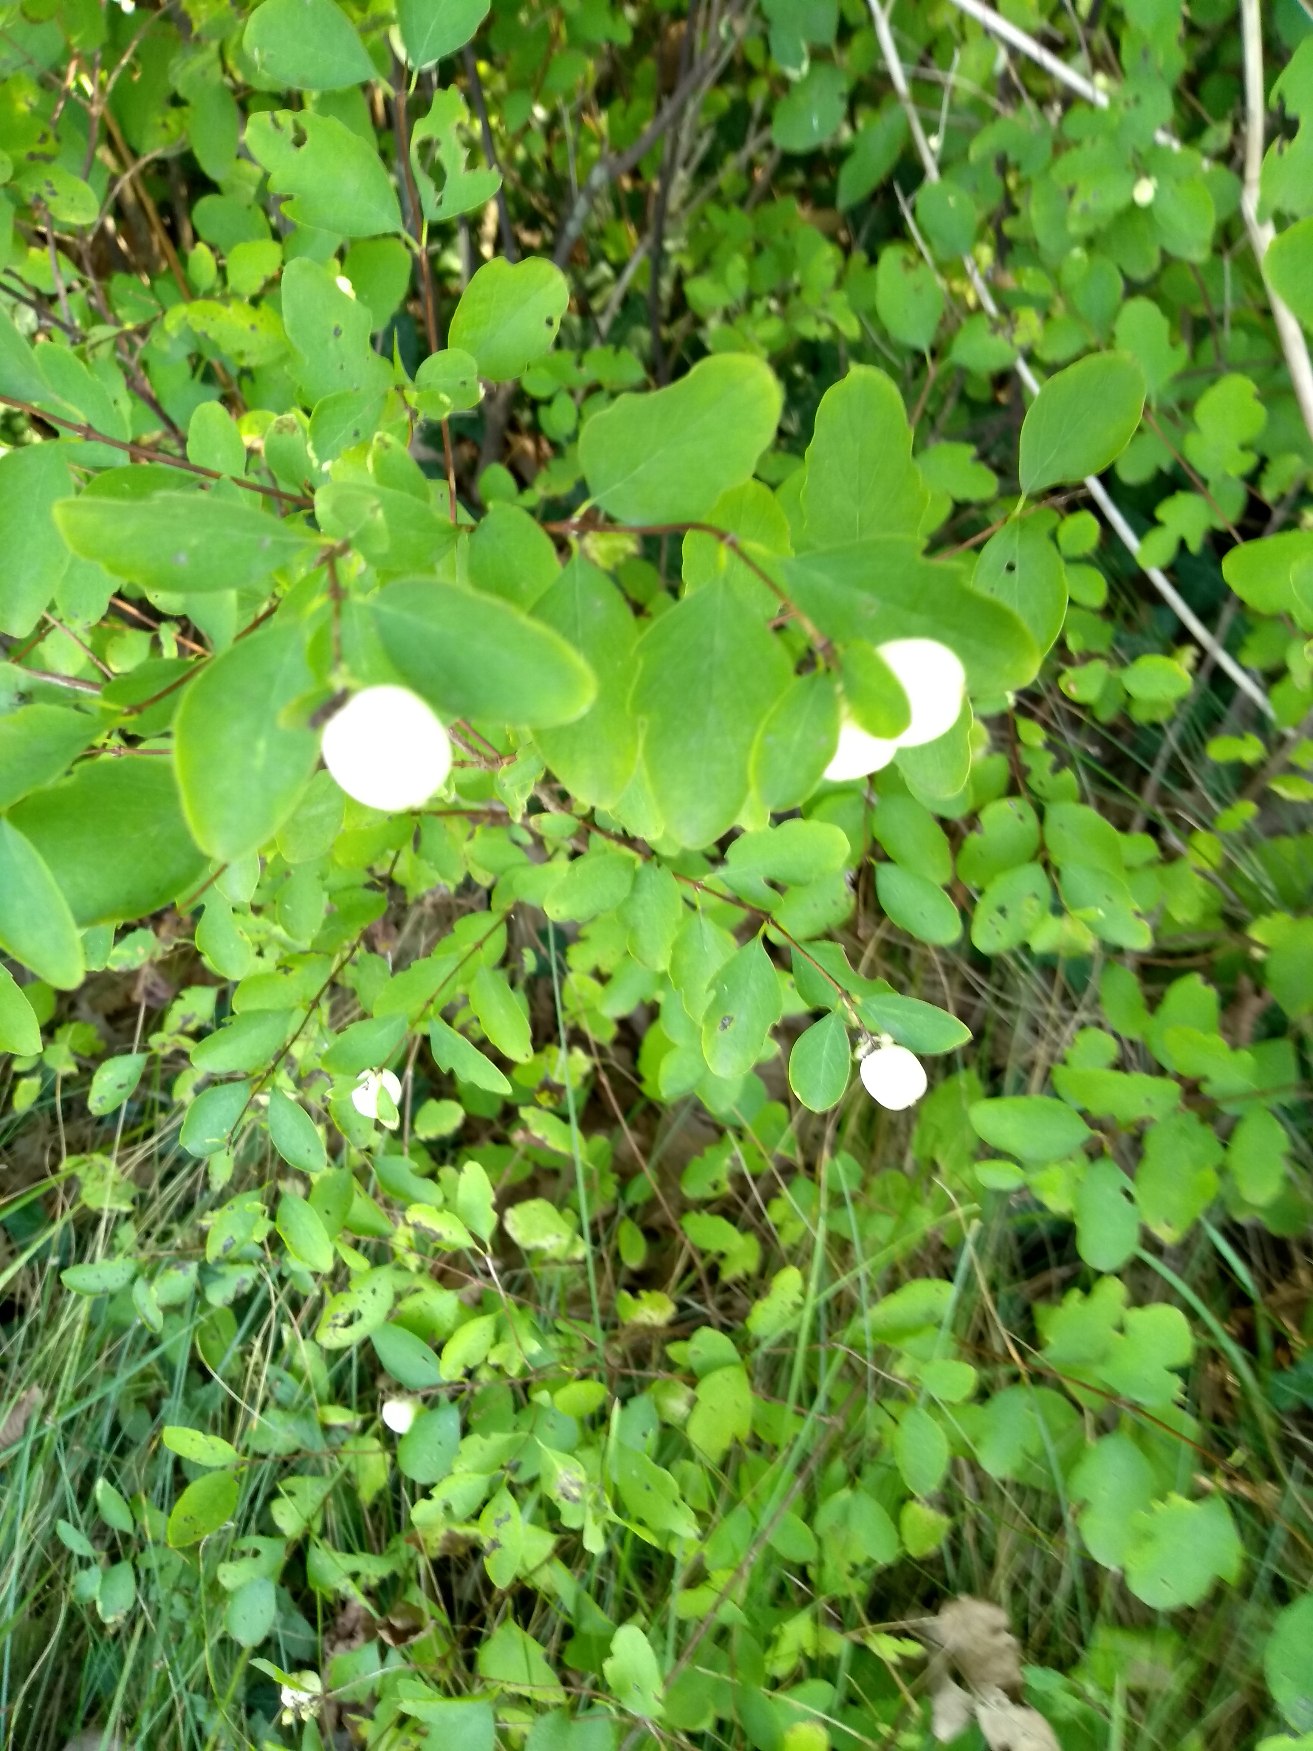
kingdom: Plantae
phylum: Tracheophyta
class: Magnoliopsida
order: Dipsacales
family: Caprifoliaceae
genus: Symphoricarpos
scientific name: Symphoricarpos albus
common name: Almindelig snebær
